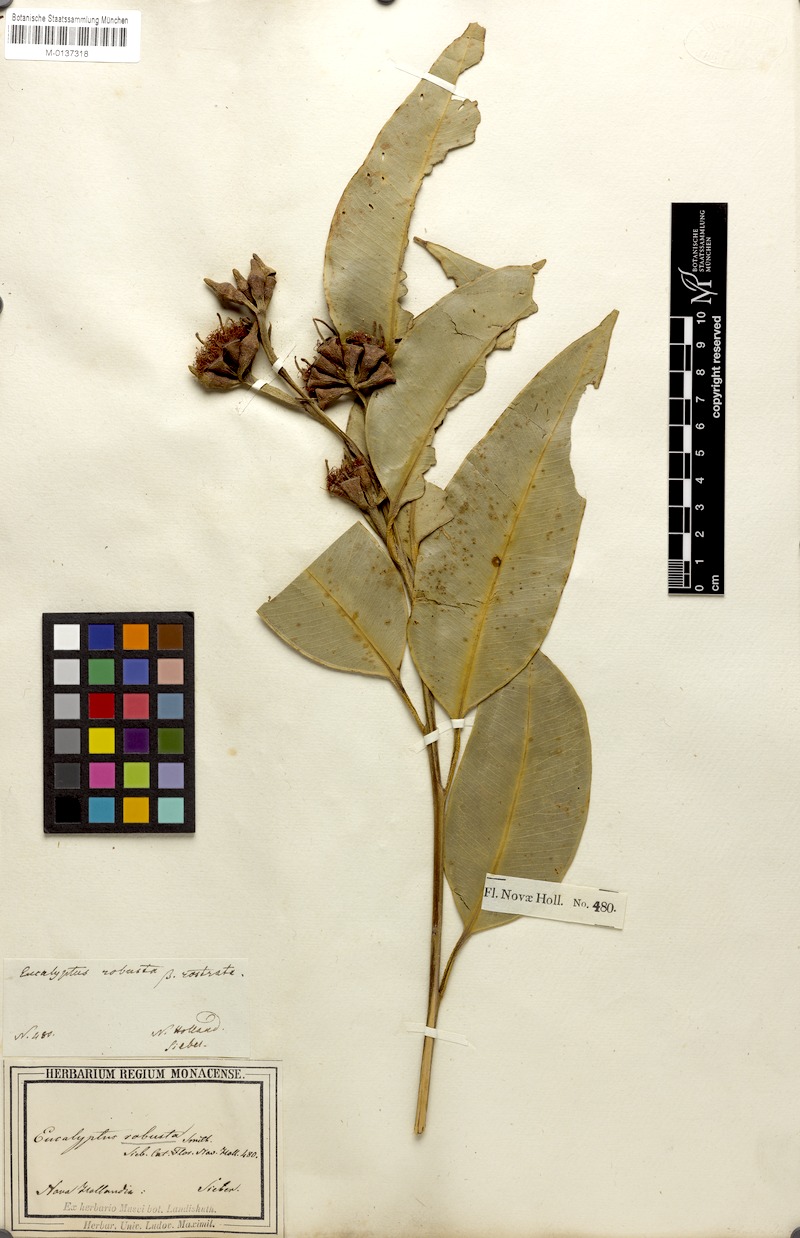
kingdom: Plantae
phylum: Tracheophyta
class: Magnoliopsida
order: Myrtales
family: Myrtaceae
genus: Eucalyptus
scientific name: Eucalyptus robusta
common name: Swampmahogany
